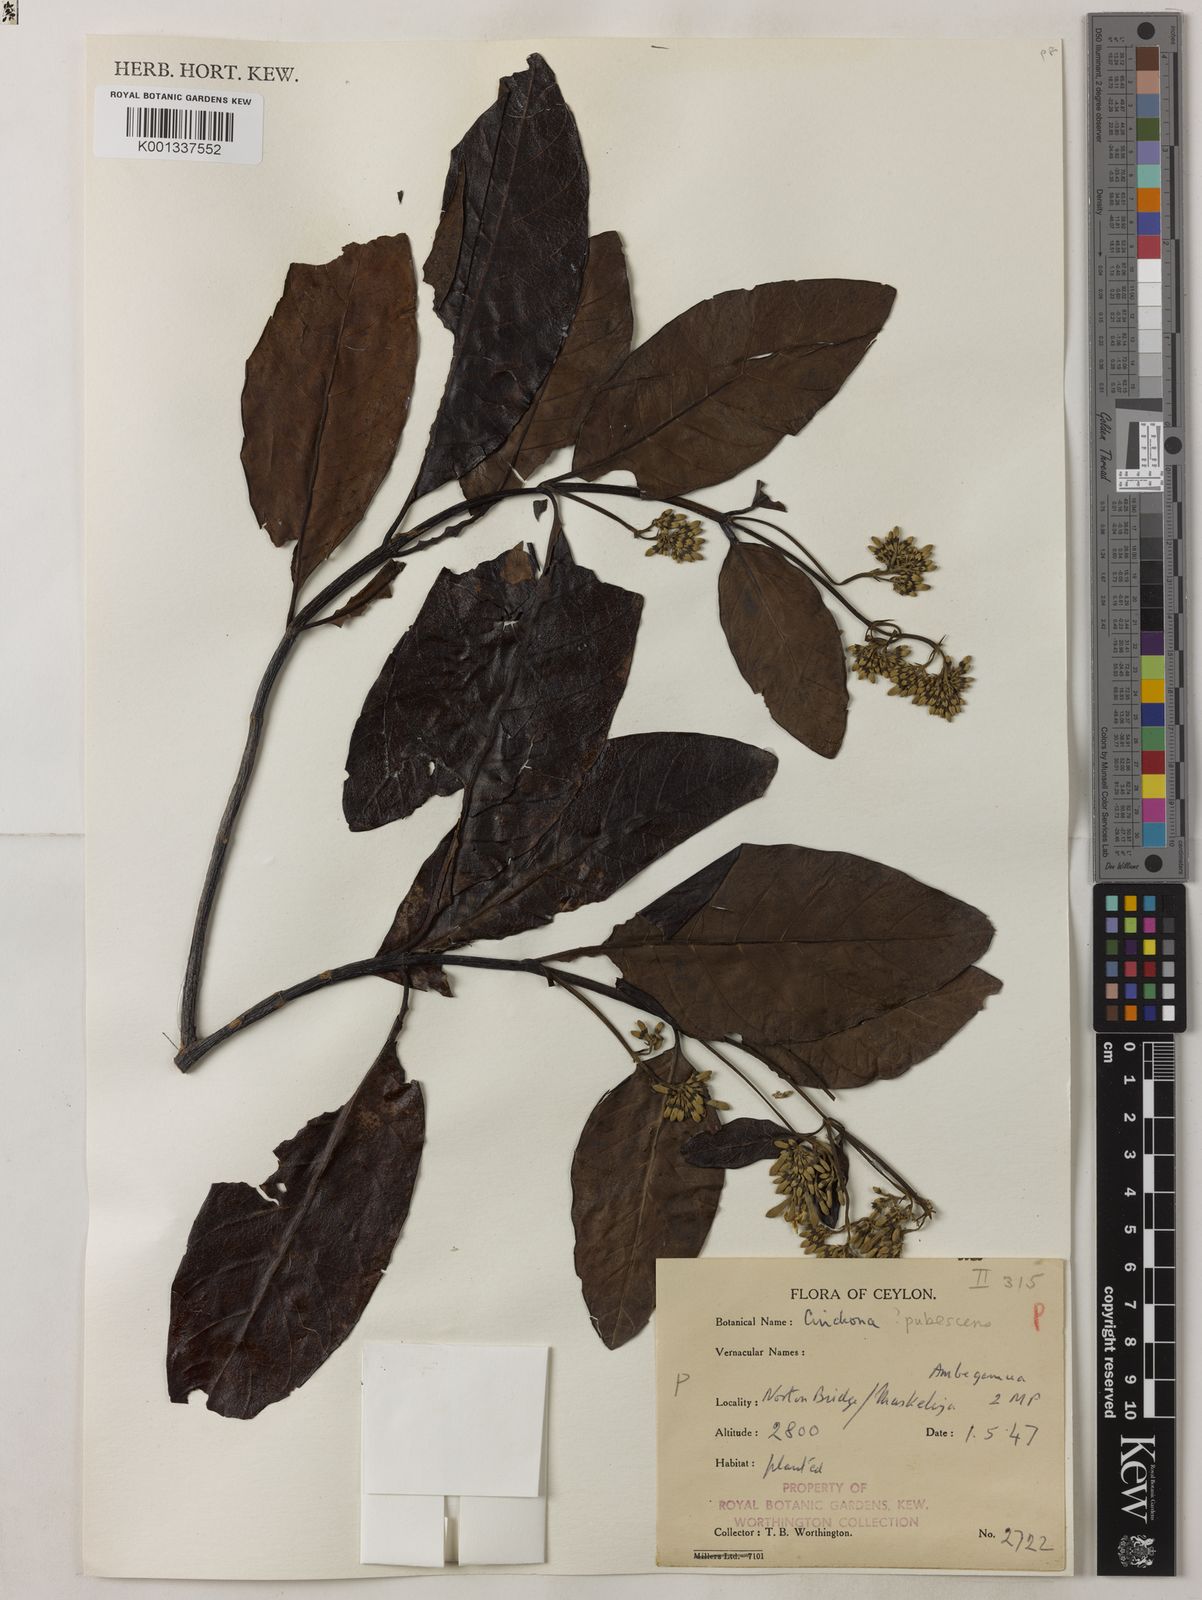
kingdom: Plantae
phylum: Tracheophyta
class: Magnoliopsida
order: Gentianales
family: Rubiaceae
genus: Cinchona
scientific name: Cinchona pubescens
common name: Quinine
